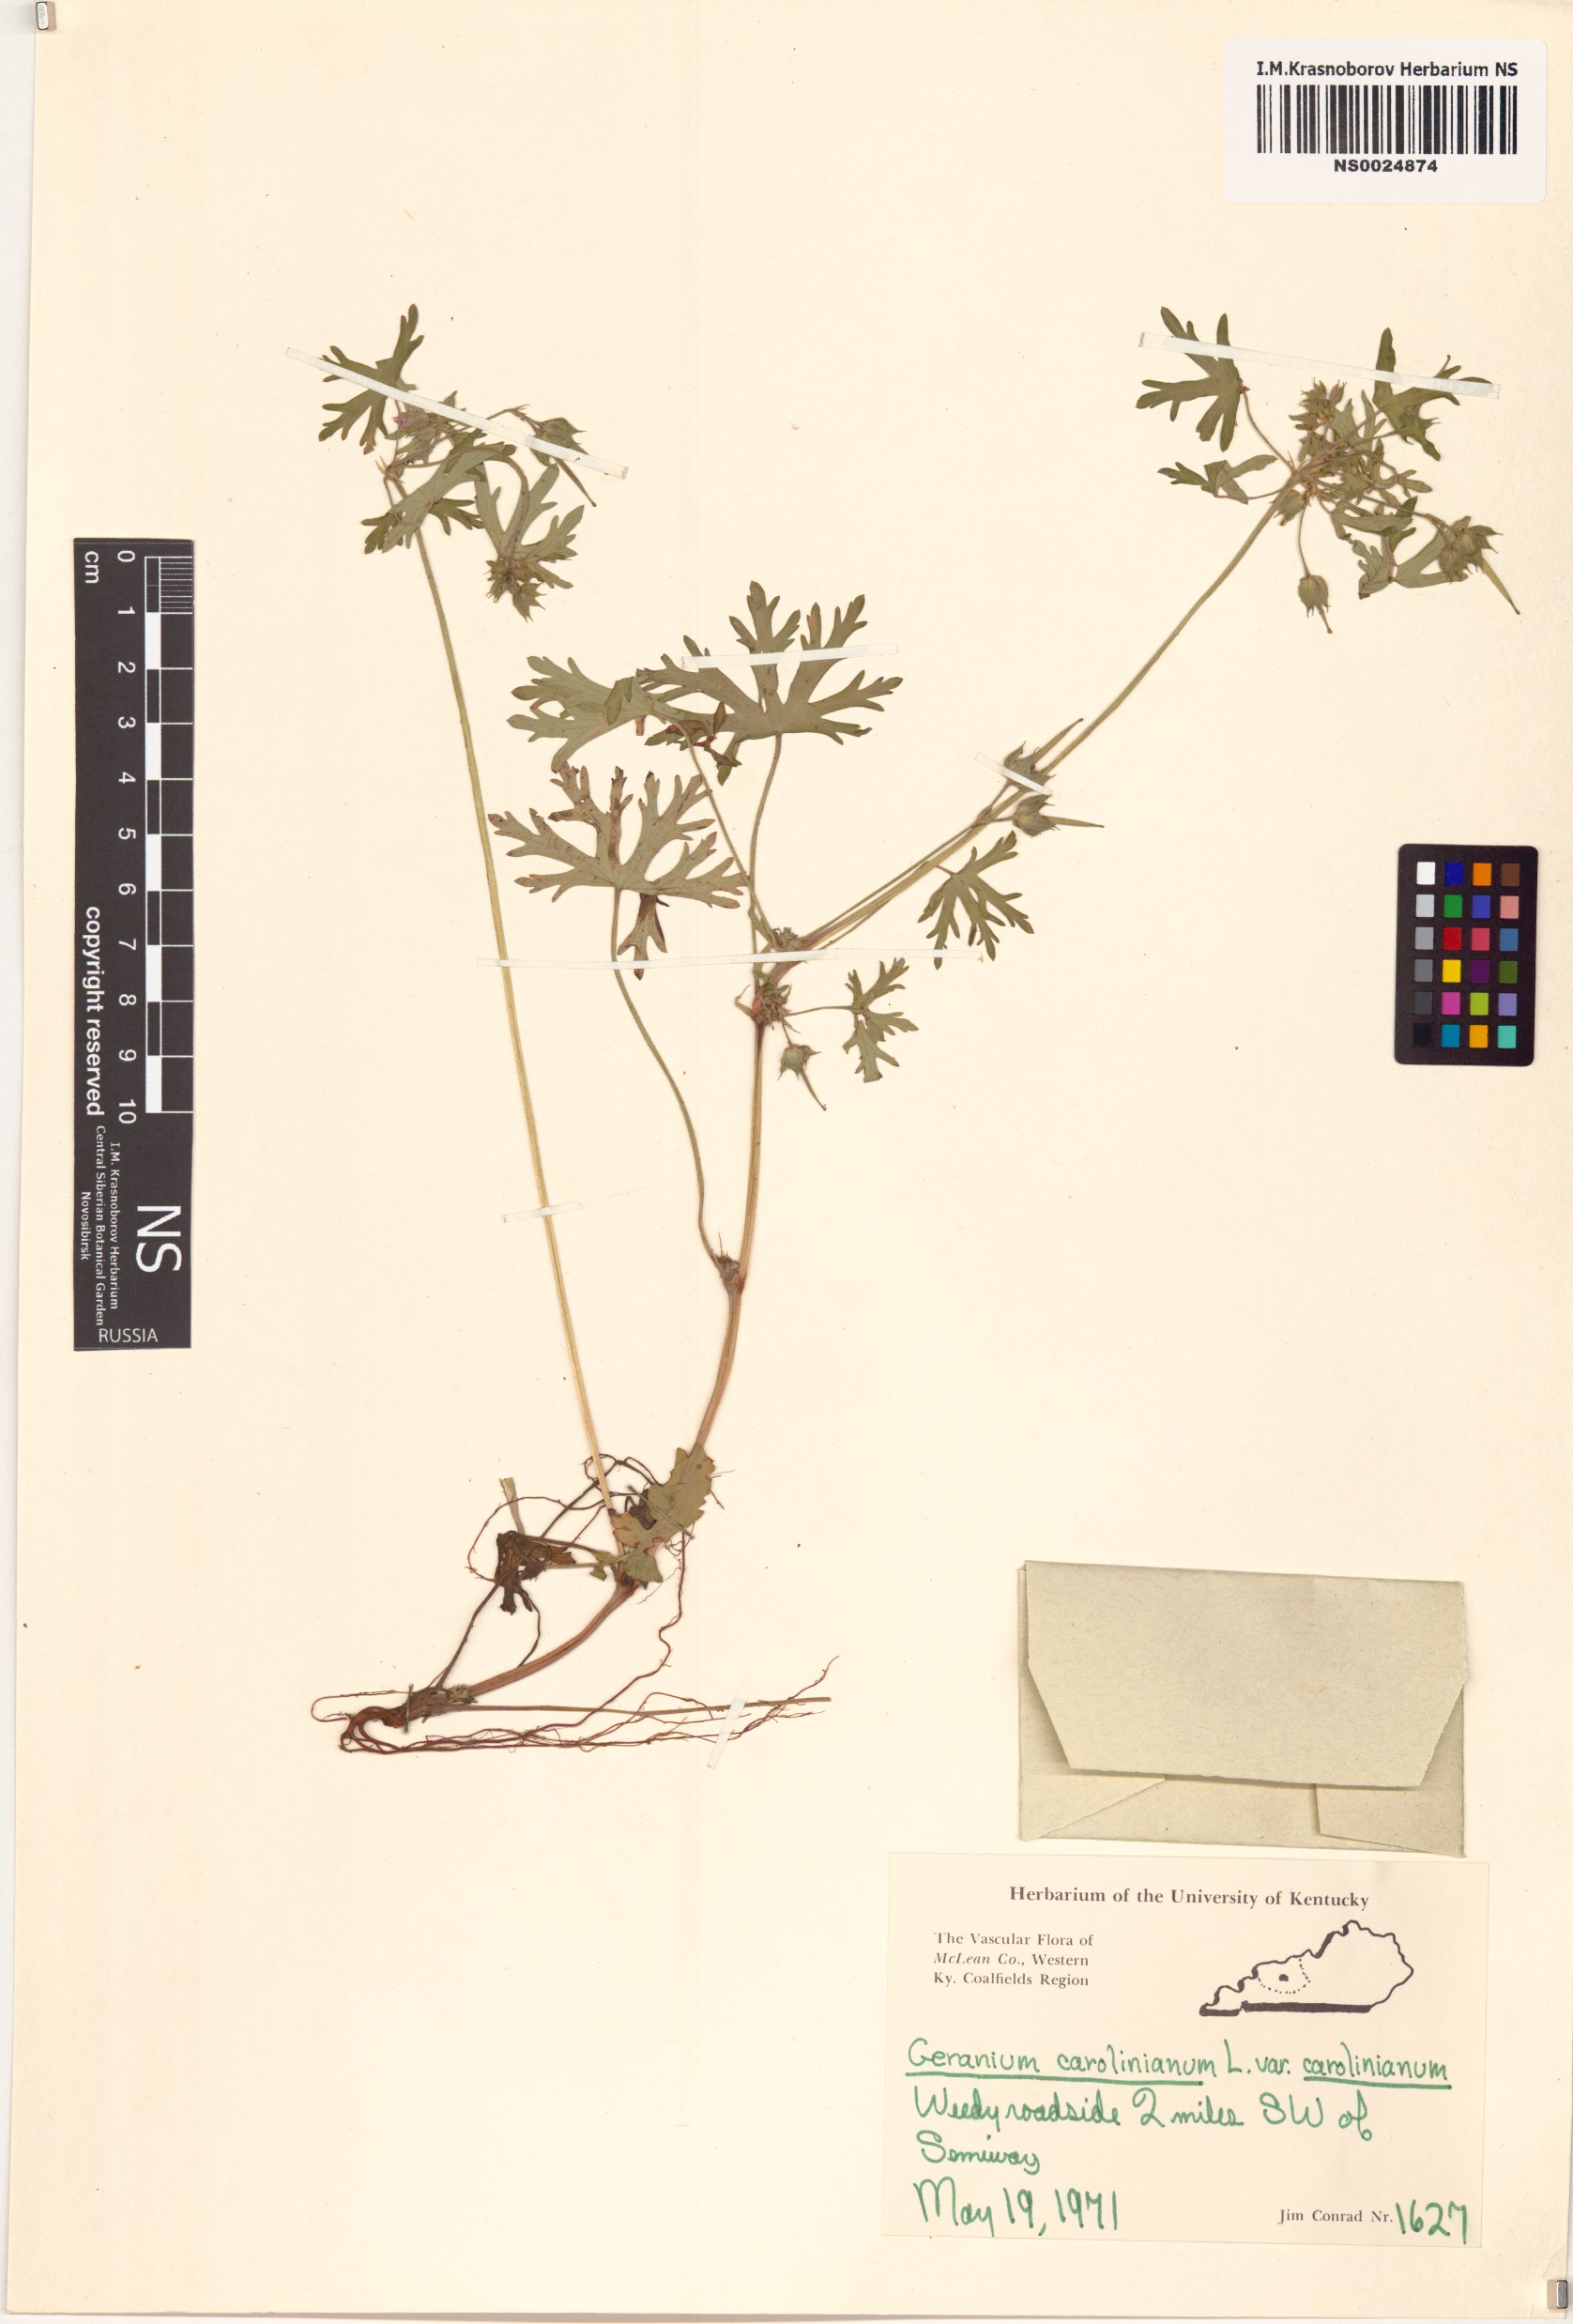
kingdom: Plantae
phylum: Tracheophyta
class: Magnoliopsida
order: Geraniales
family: Geraniaceae
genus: Geranium
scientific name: Geranium carolinianum
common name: Carolina crane's-bill
